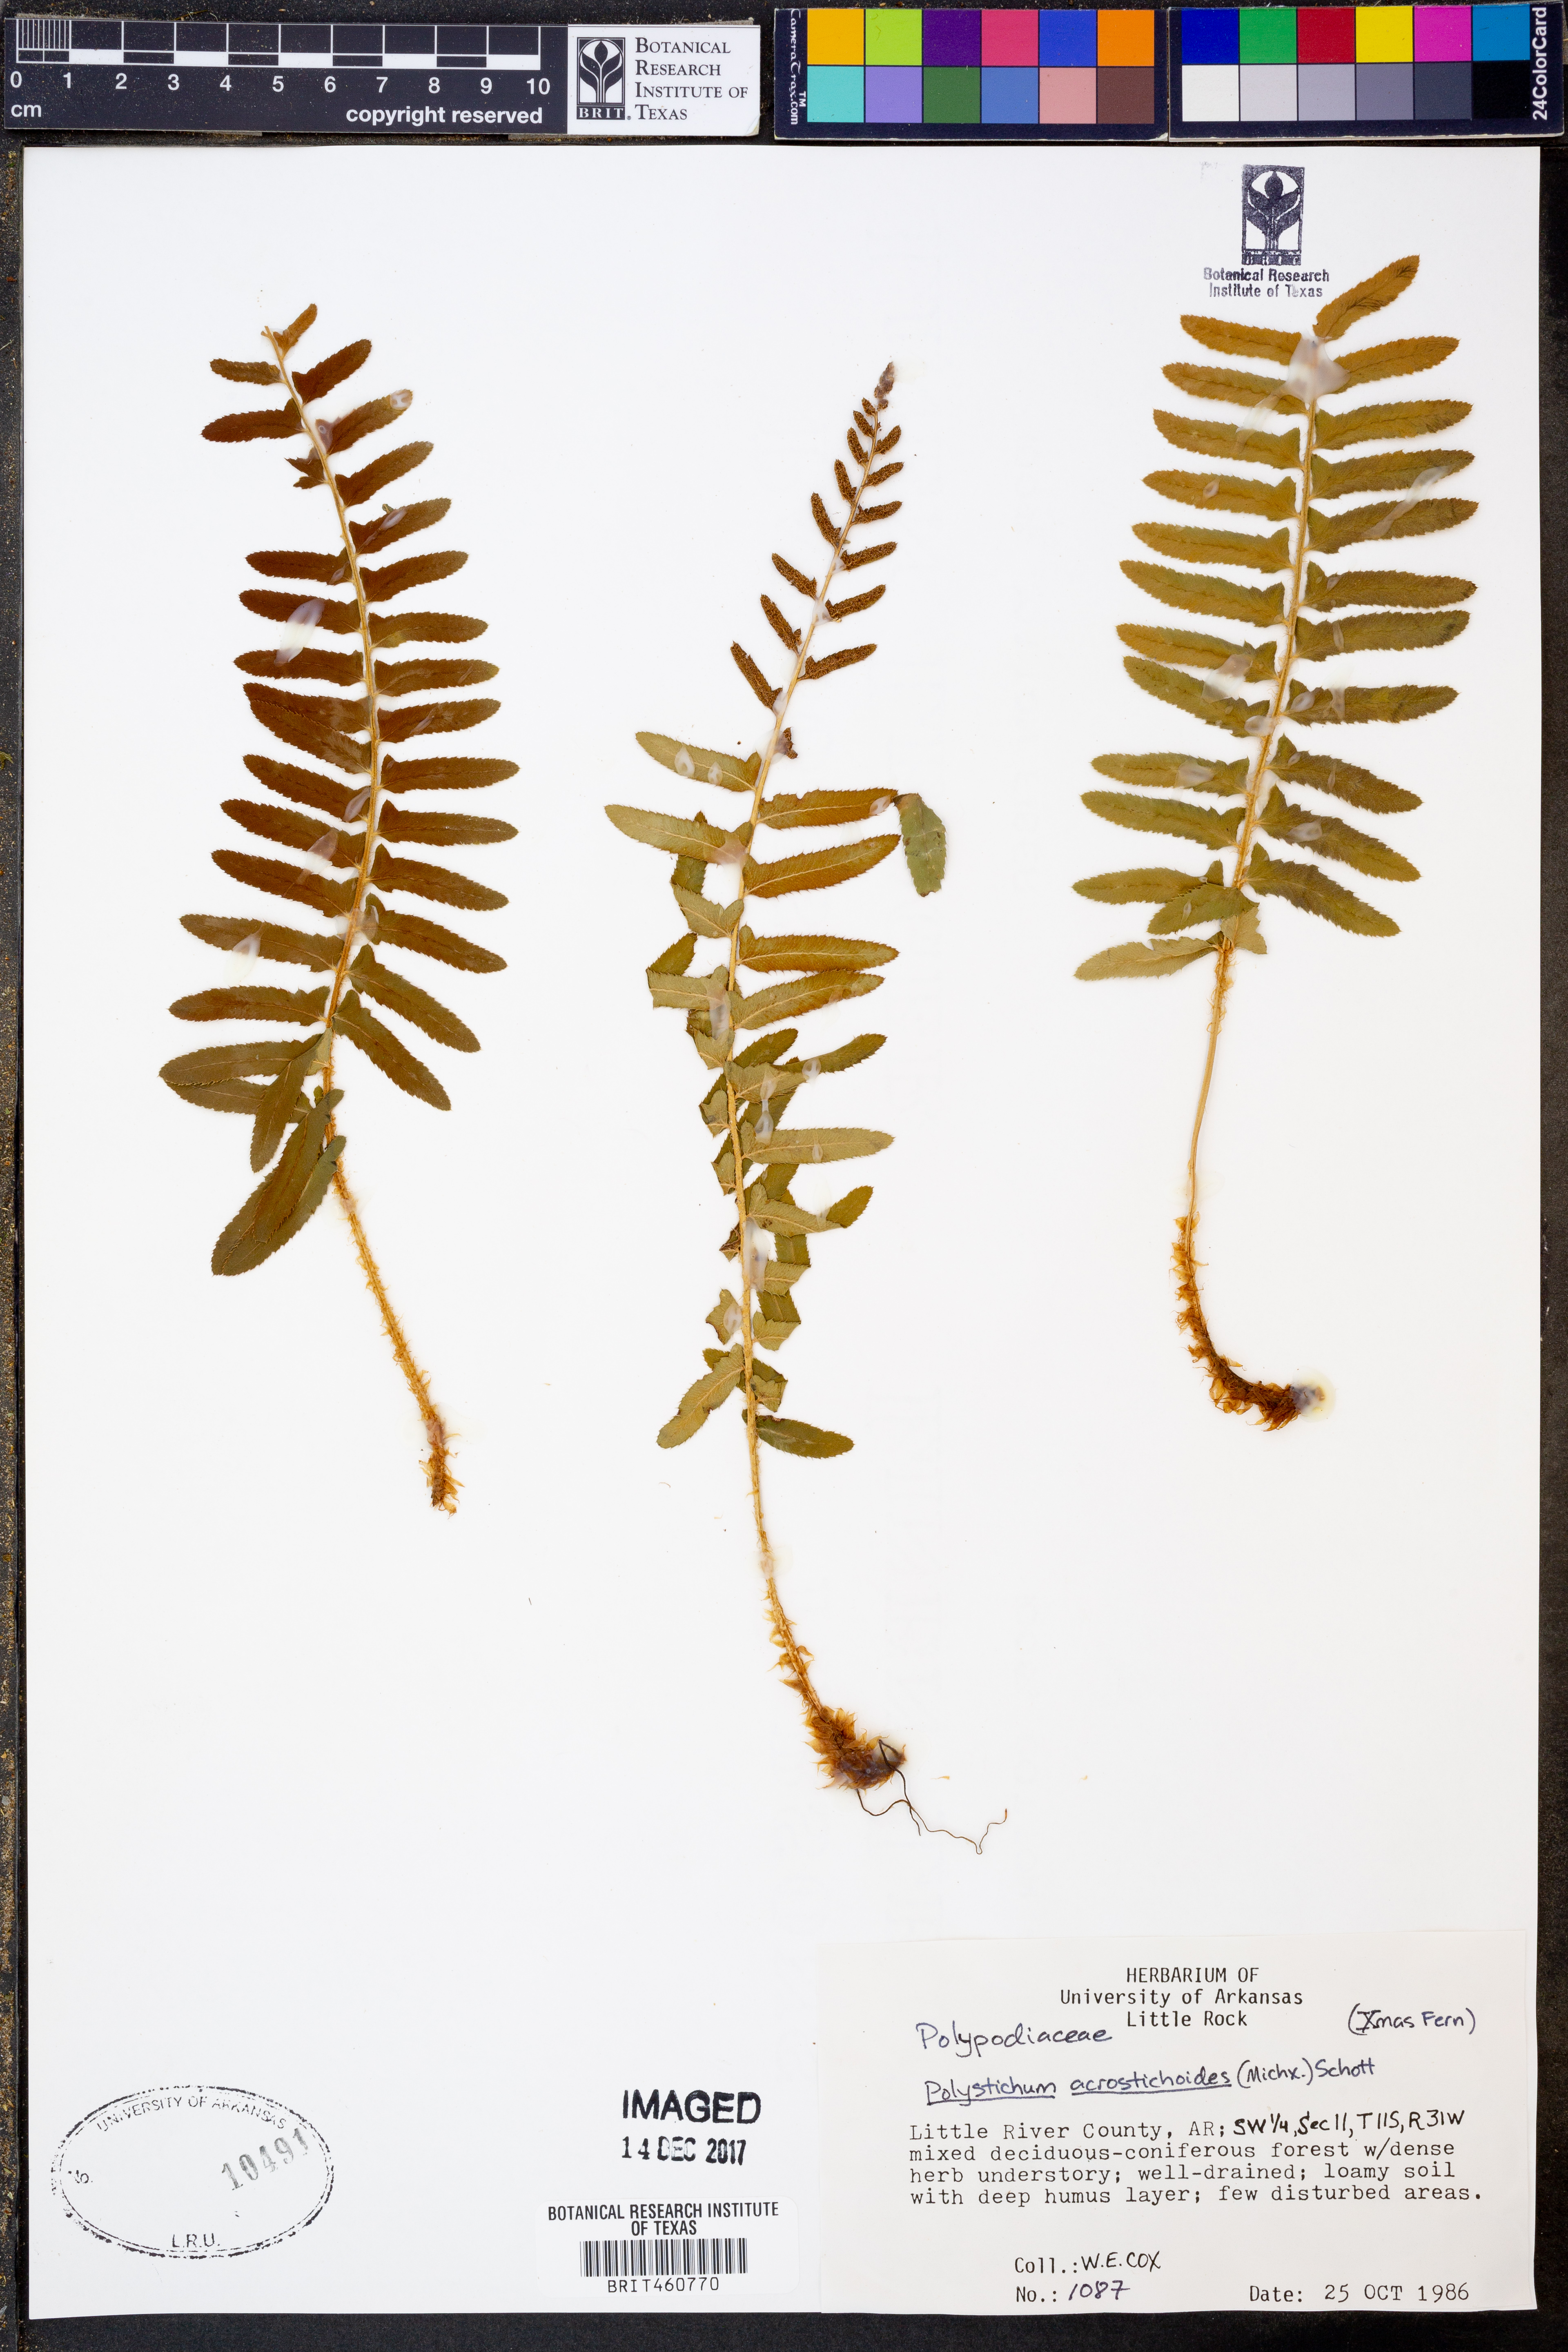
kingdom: Plantae
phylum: Tracheophyta
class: Polypodiopsida
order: Polypodiales
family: Dryopteridaceae
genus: Polystichum
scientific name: Polystichum acrostichoides
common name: Christmas fern
